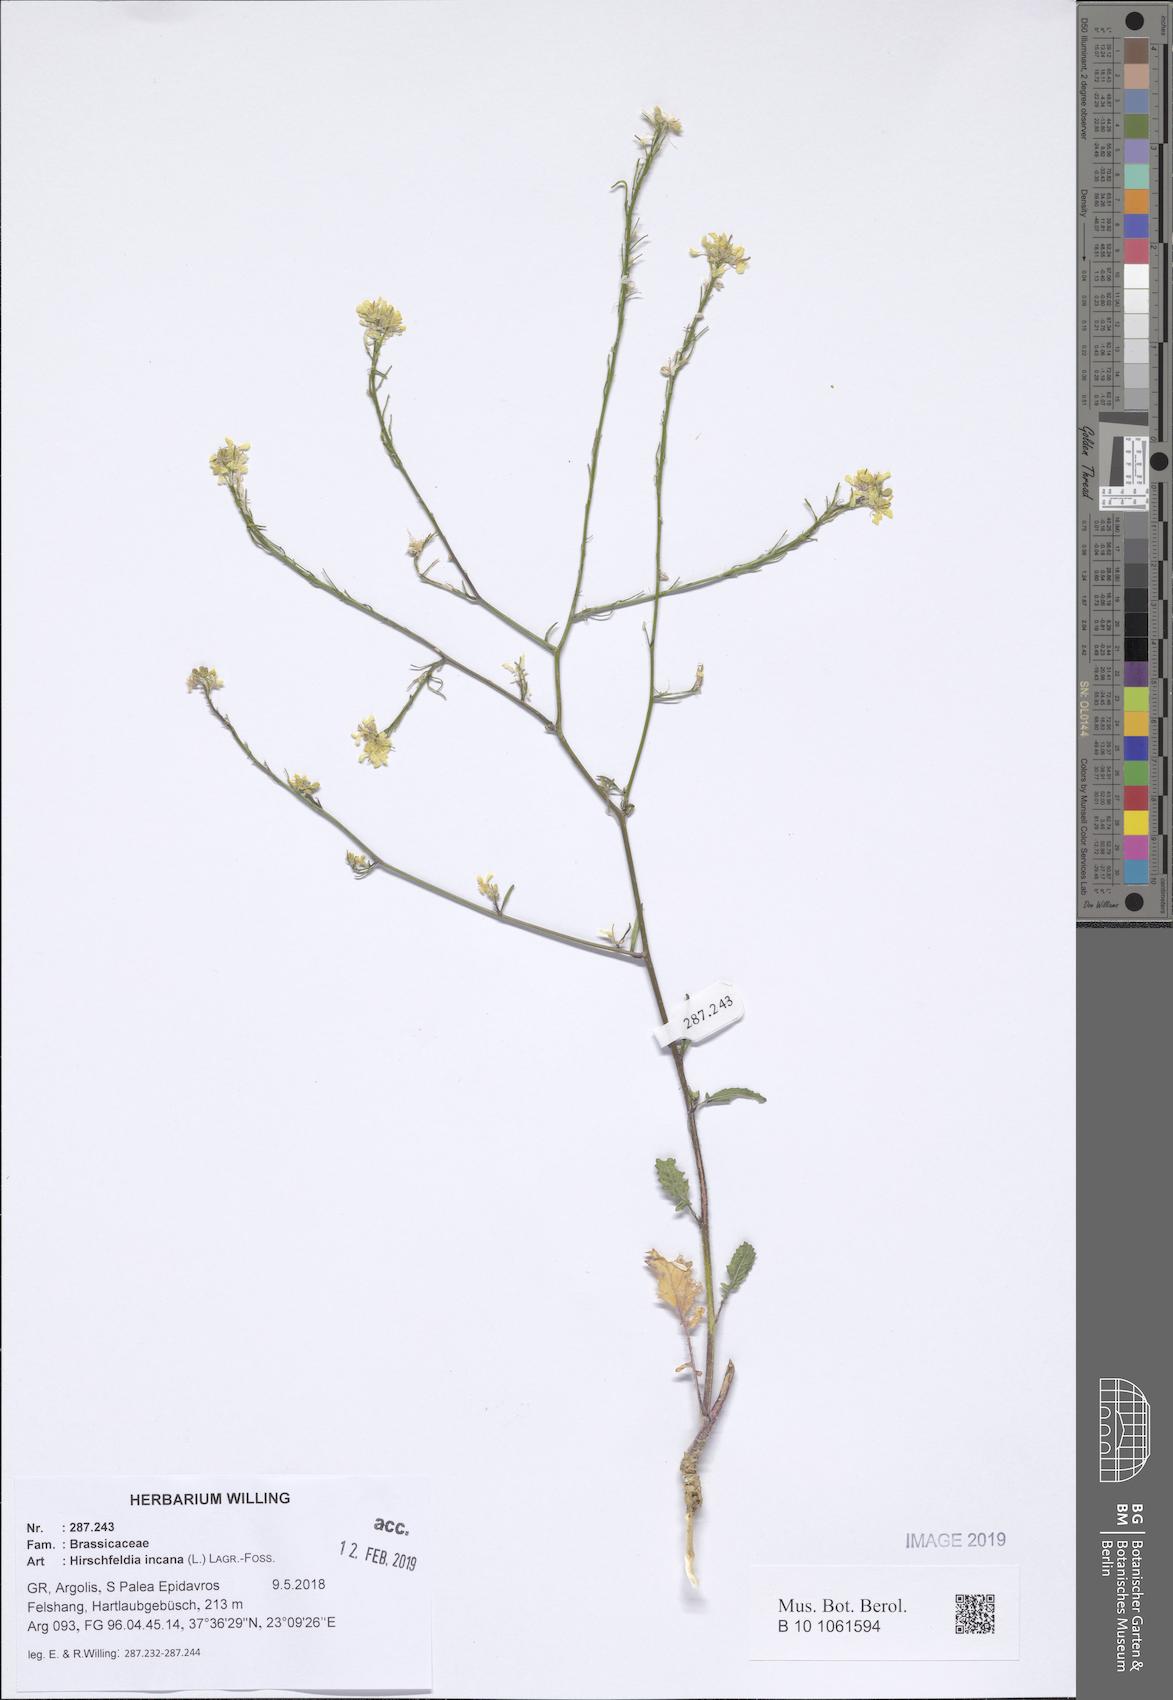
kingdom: Plantae
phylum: Tracheophyta
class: Magnoliopsida
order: Brassicales
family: Brassicaceae
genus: Hirschfeldia
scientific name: Hirschfeldia incana
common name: Hoary mustard
